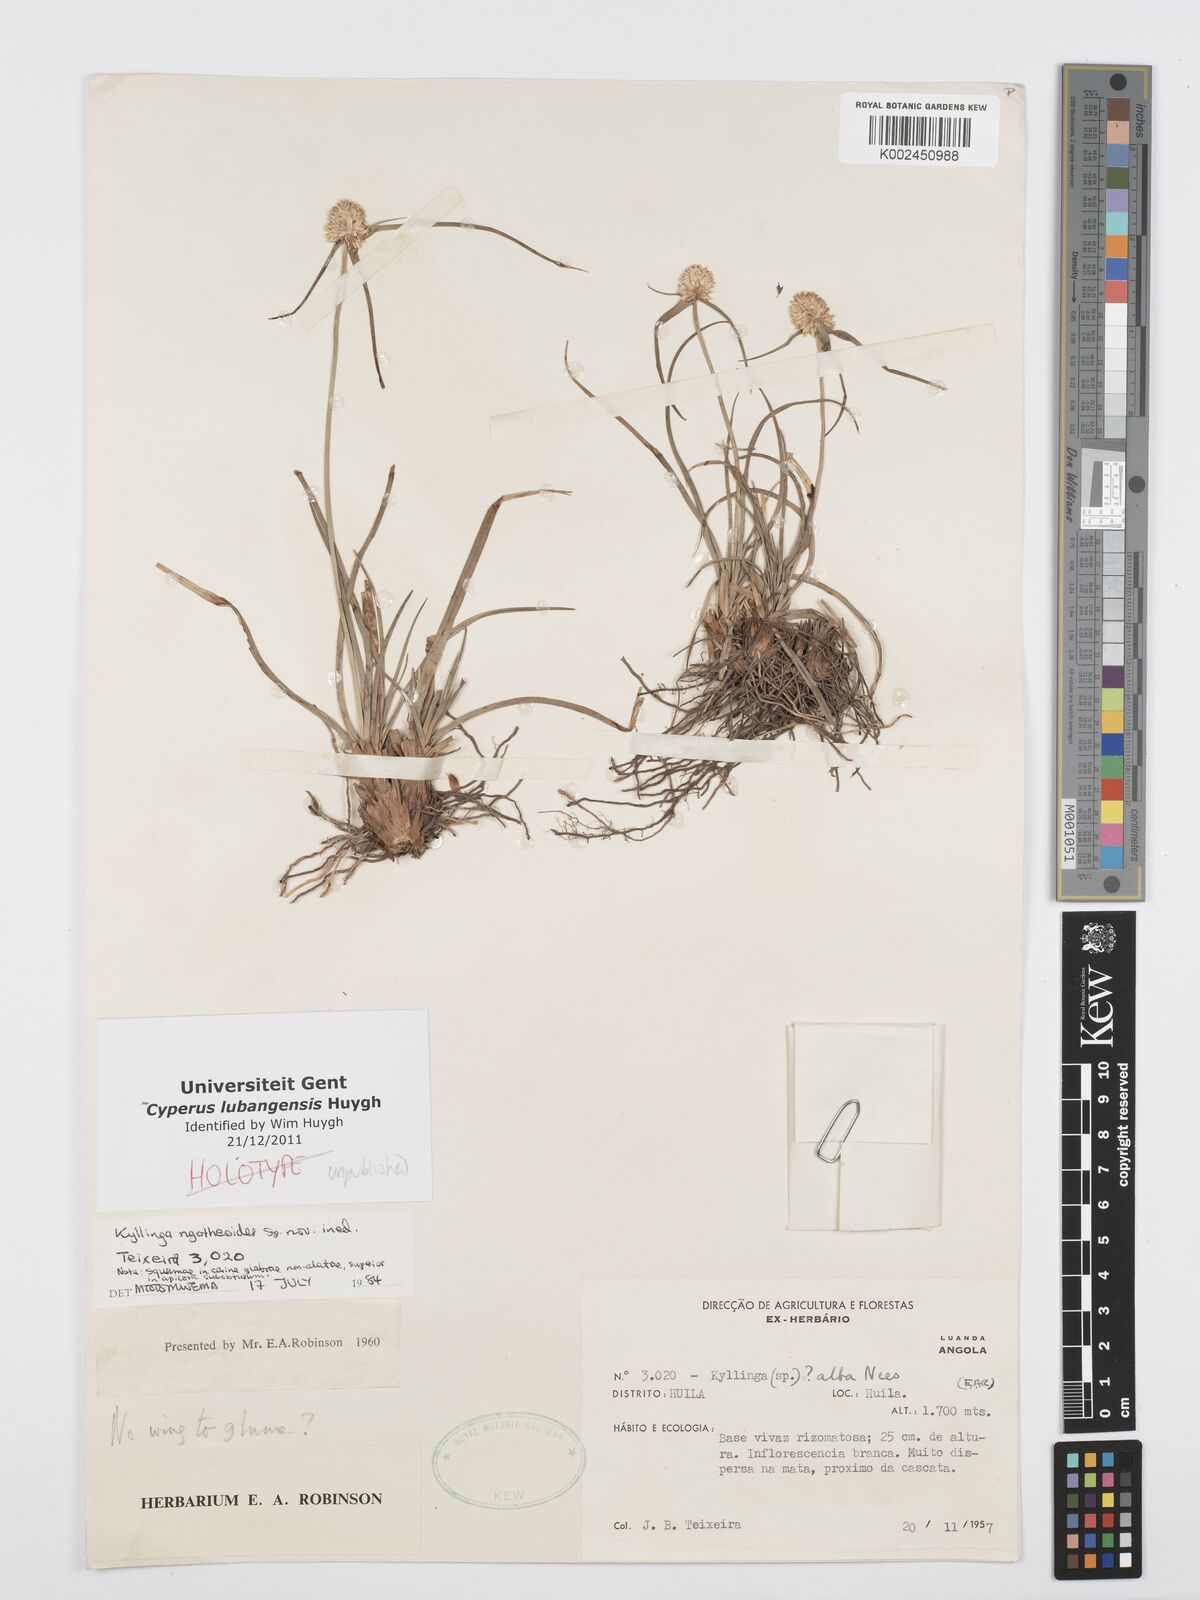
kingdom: Plantae
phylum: Tracheophyta
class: Liliopsida
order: Poales
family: Cyperaceae
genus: Cyperus
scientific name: Cyperus
